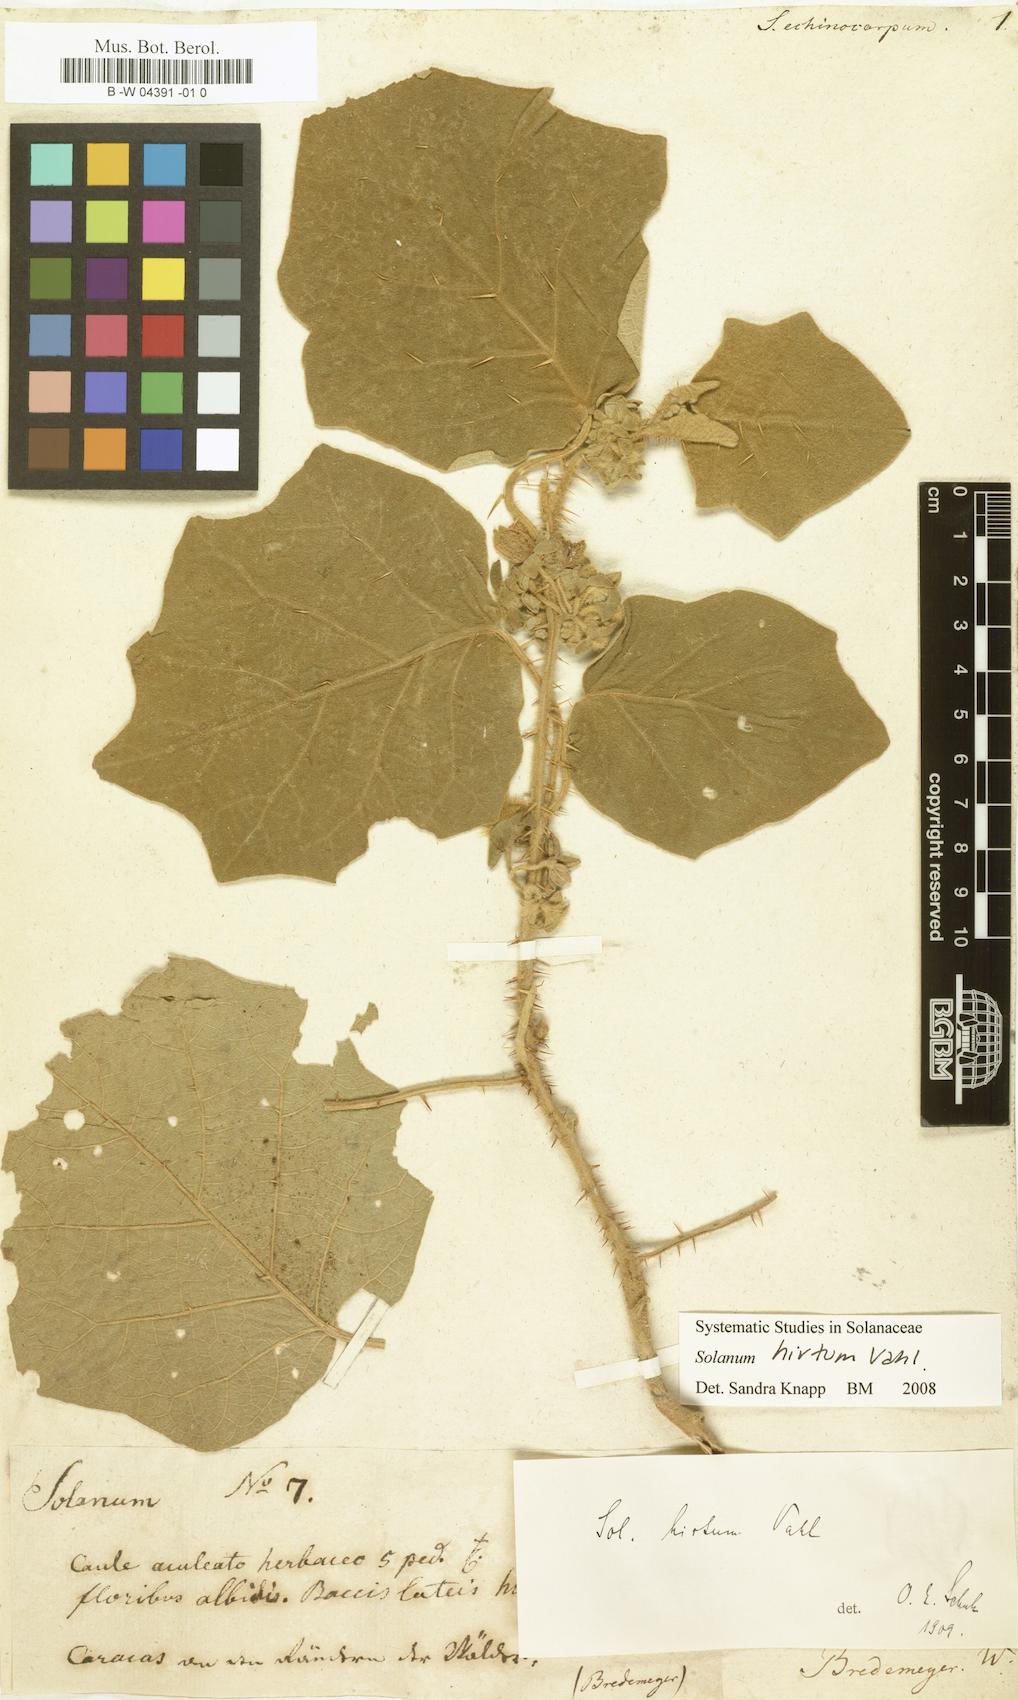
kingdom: Plantae
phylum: Tracheophyta
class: Magnoliopsida
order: Solanales
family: Solanaceae
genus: Solanum
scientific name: Solanum
